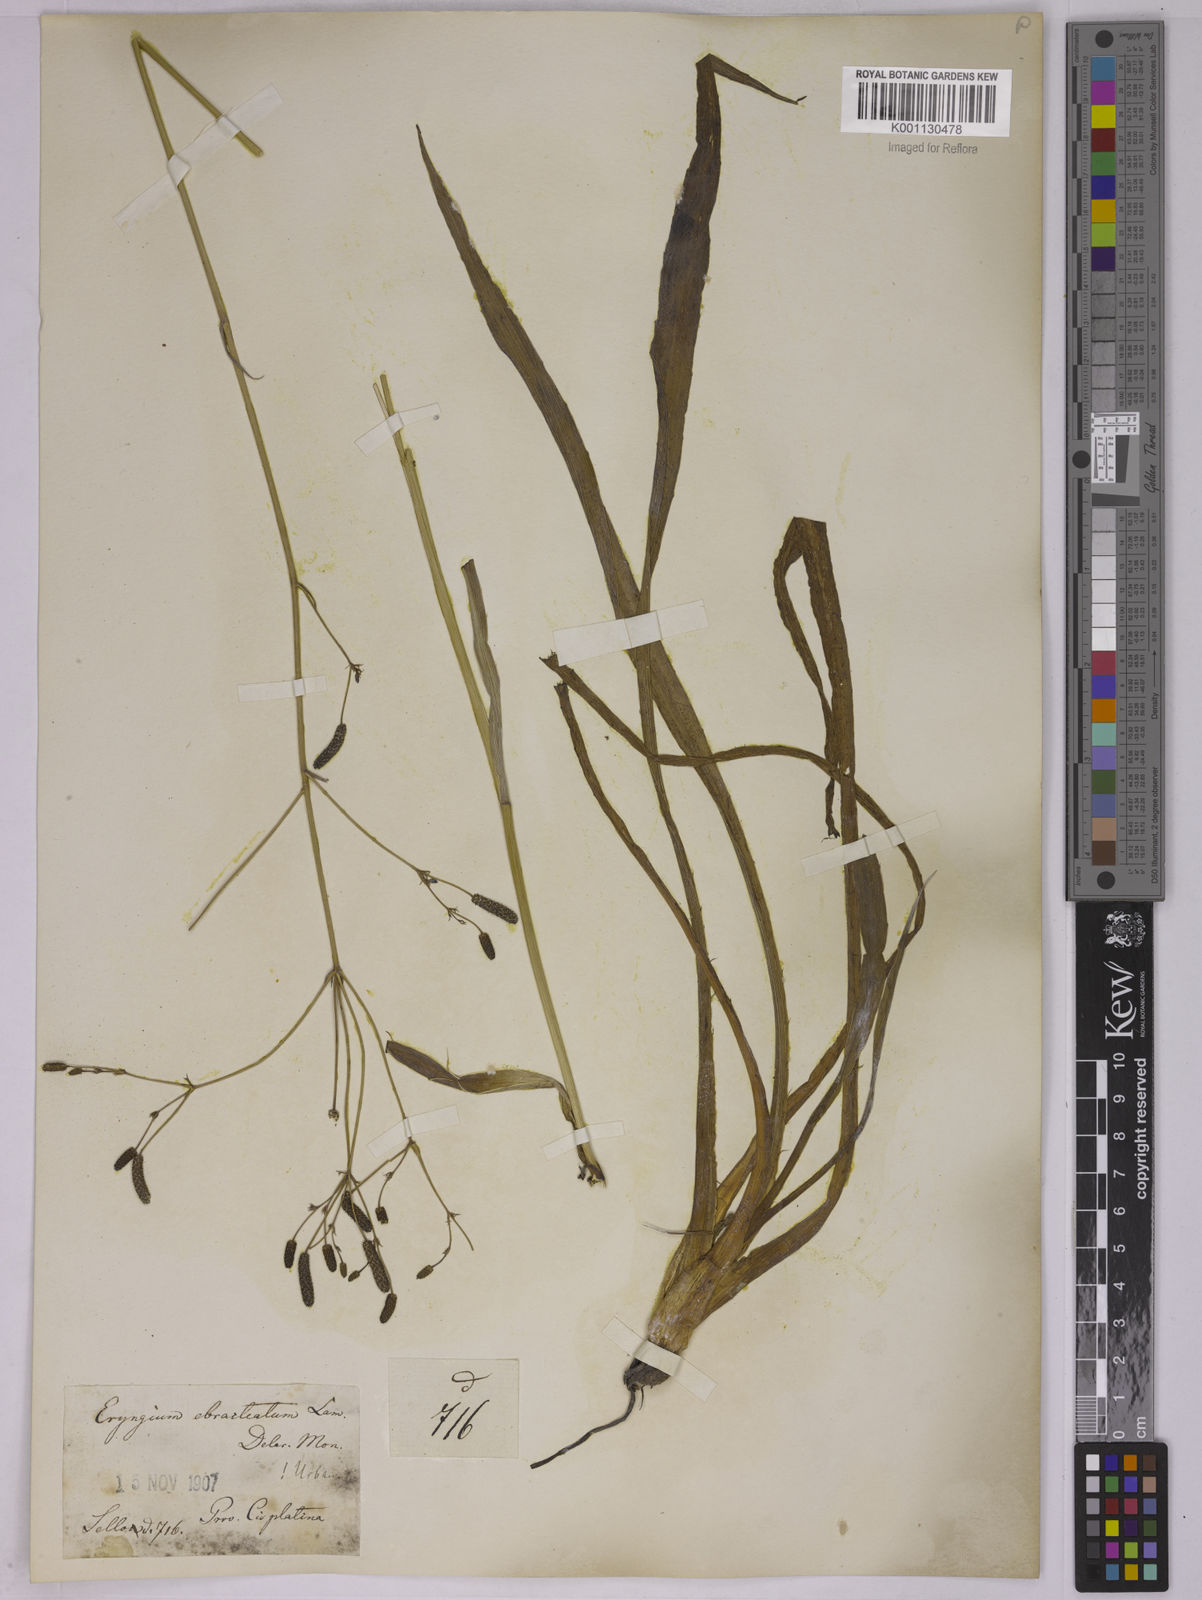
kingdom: Plantae
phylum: Tracheophyta
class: Magnoliopsida
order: Apiales
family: Apiaceae
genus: Eryngium
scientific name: Eryngium ebracteatum
